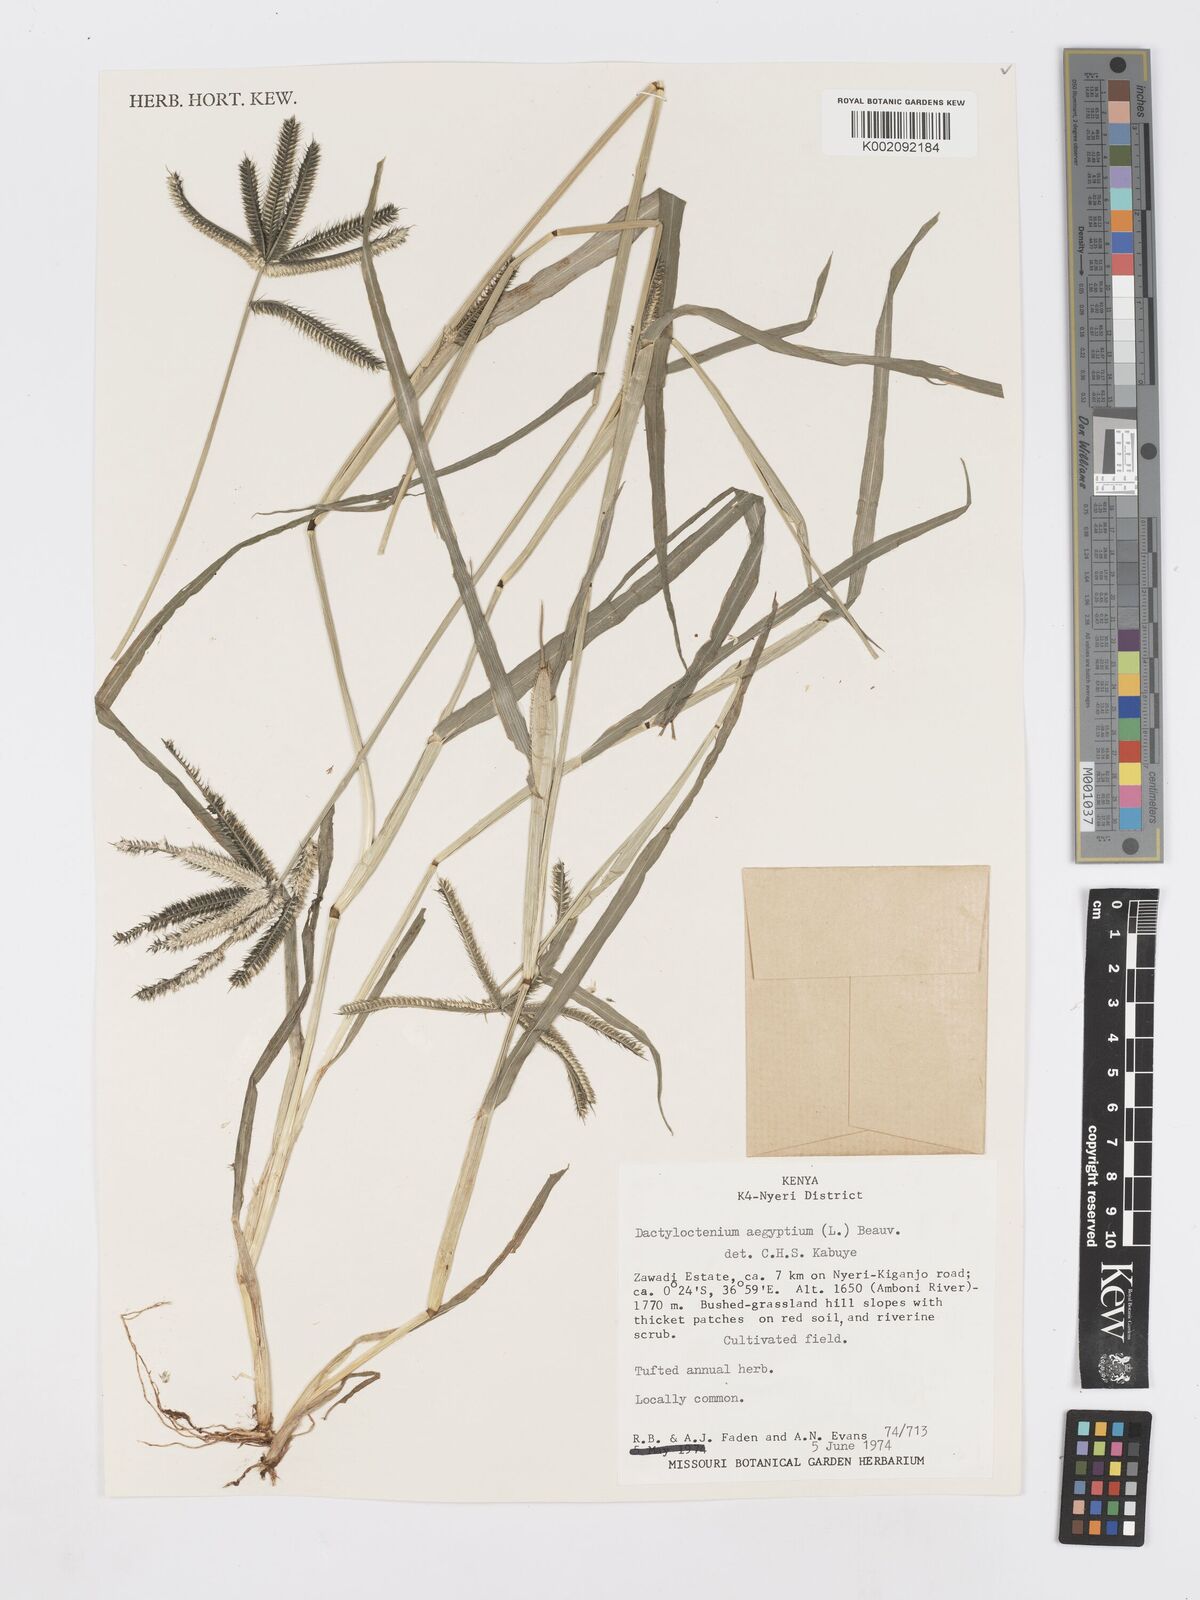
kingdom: Plantae
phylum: Tracheophyta
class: Liliopsida
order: Poales
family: Poaceae
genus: Dactyloctenium
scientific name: Dactyloctenium aegyptium
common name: Egyptian grass
